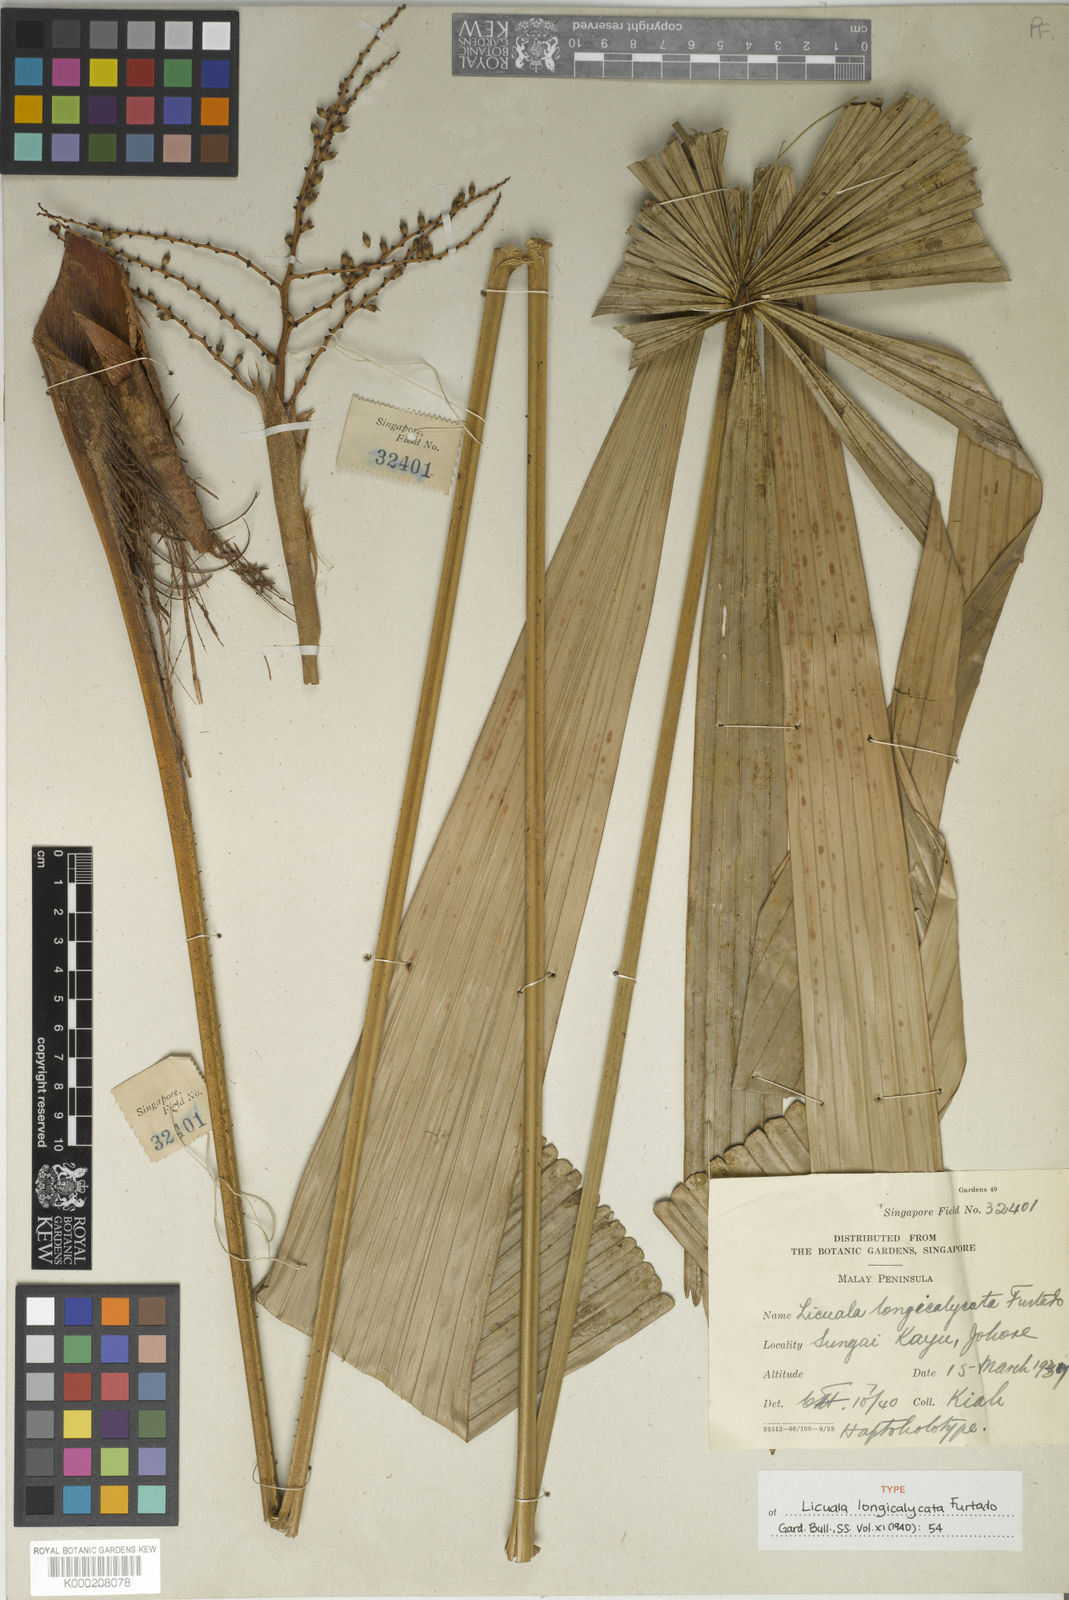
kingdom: Plantae
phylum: Tracheophyta
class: Liliopsida
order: Arecales
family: Arecaceae
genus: Licuala
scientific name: Licuala longicalycata
